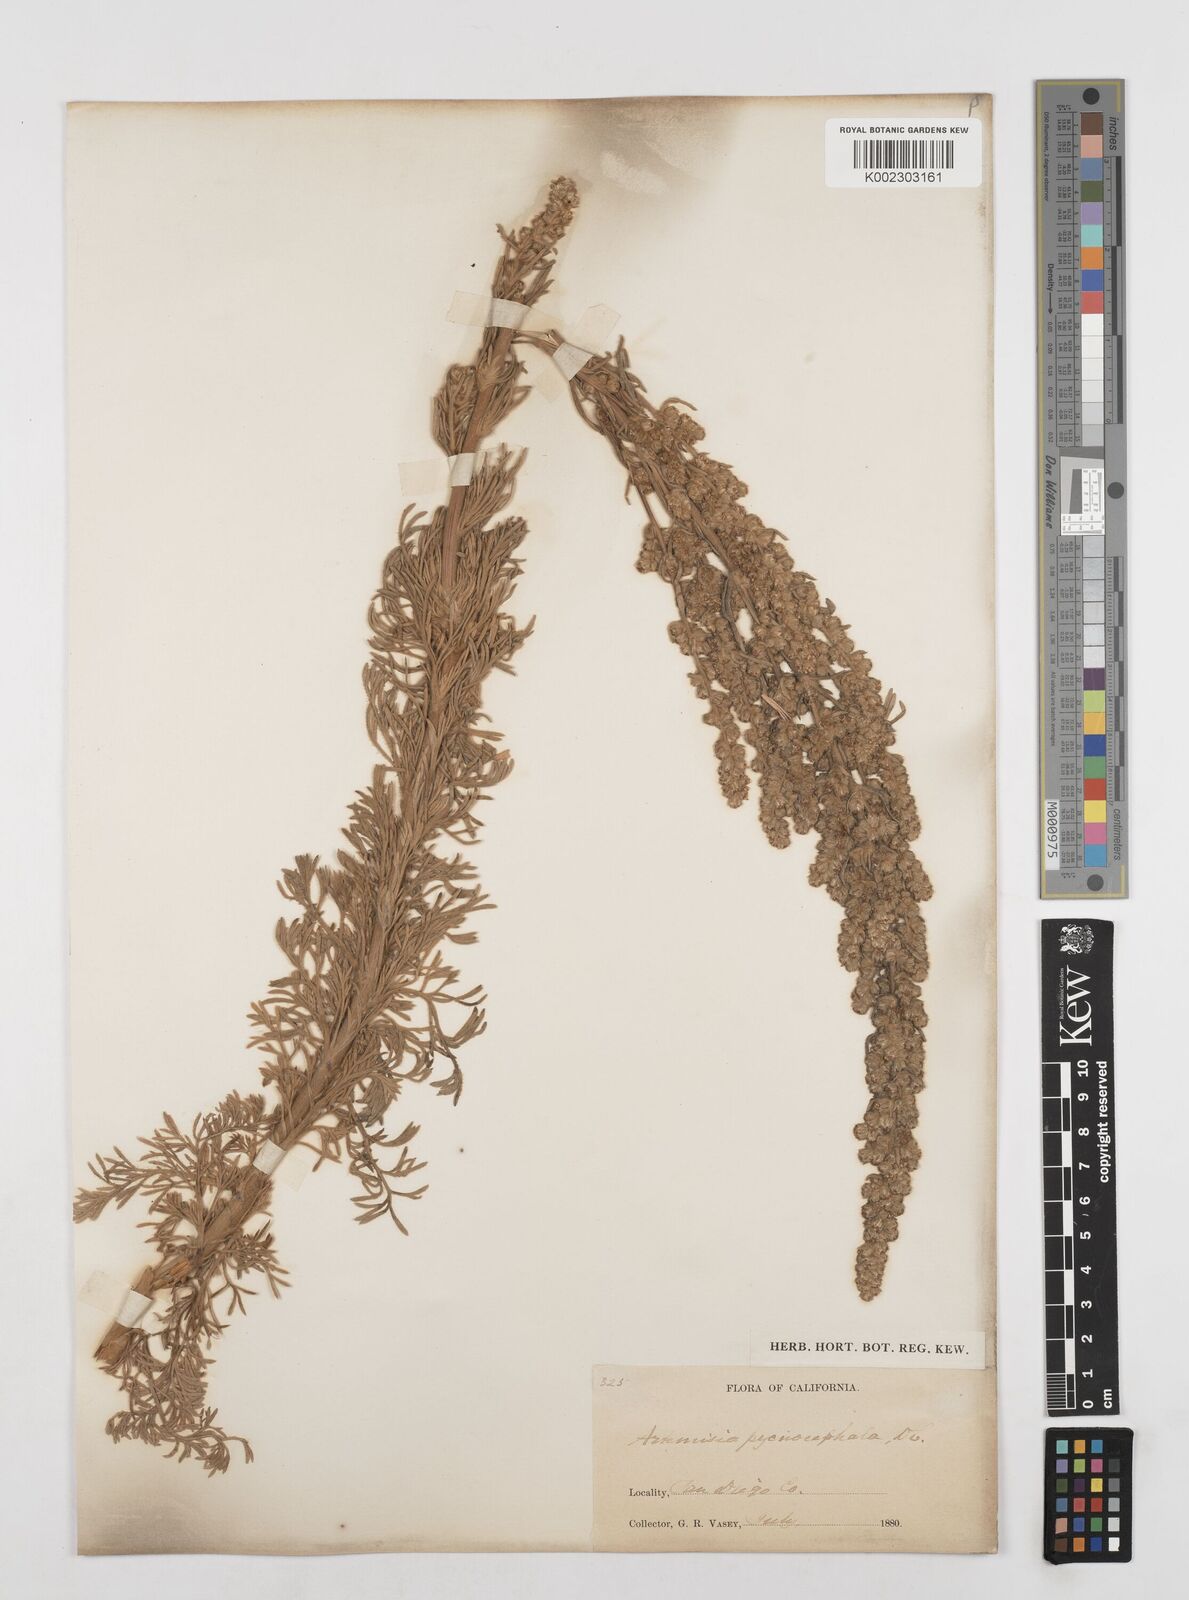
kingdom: Plantae
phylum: Tracheophyta
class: Magnoliopsida
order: Asterales
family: Asteraceae
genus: Artemisia
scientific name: Artemisia pycnocephala
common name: Coastal sagewort
